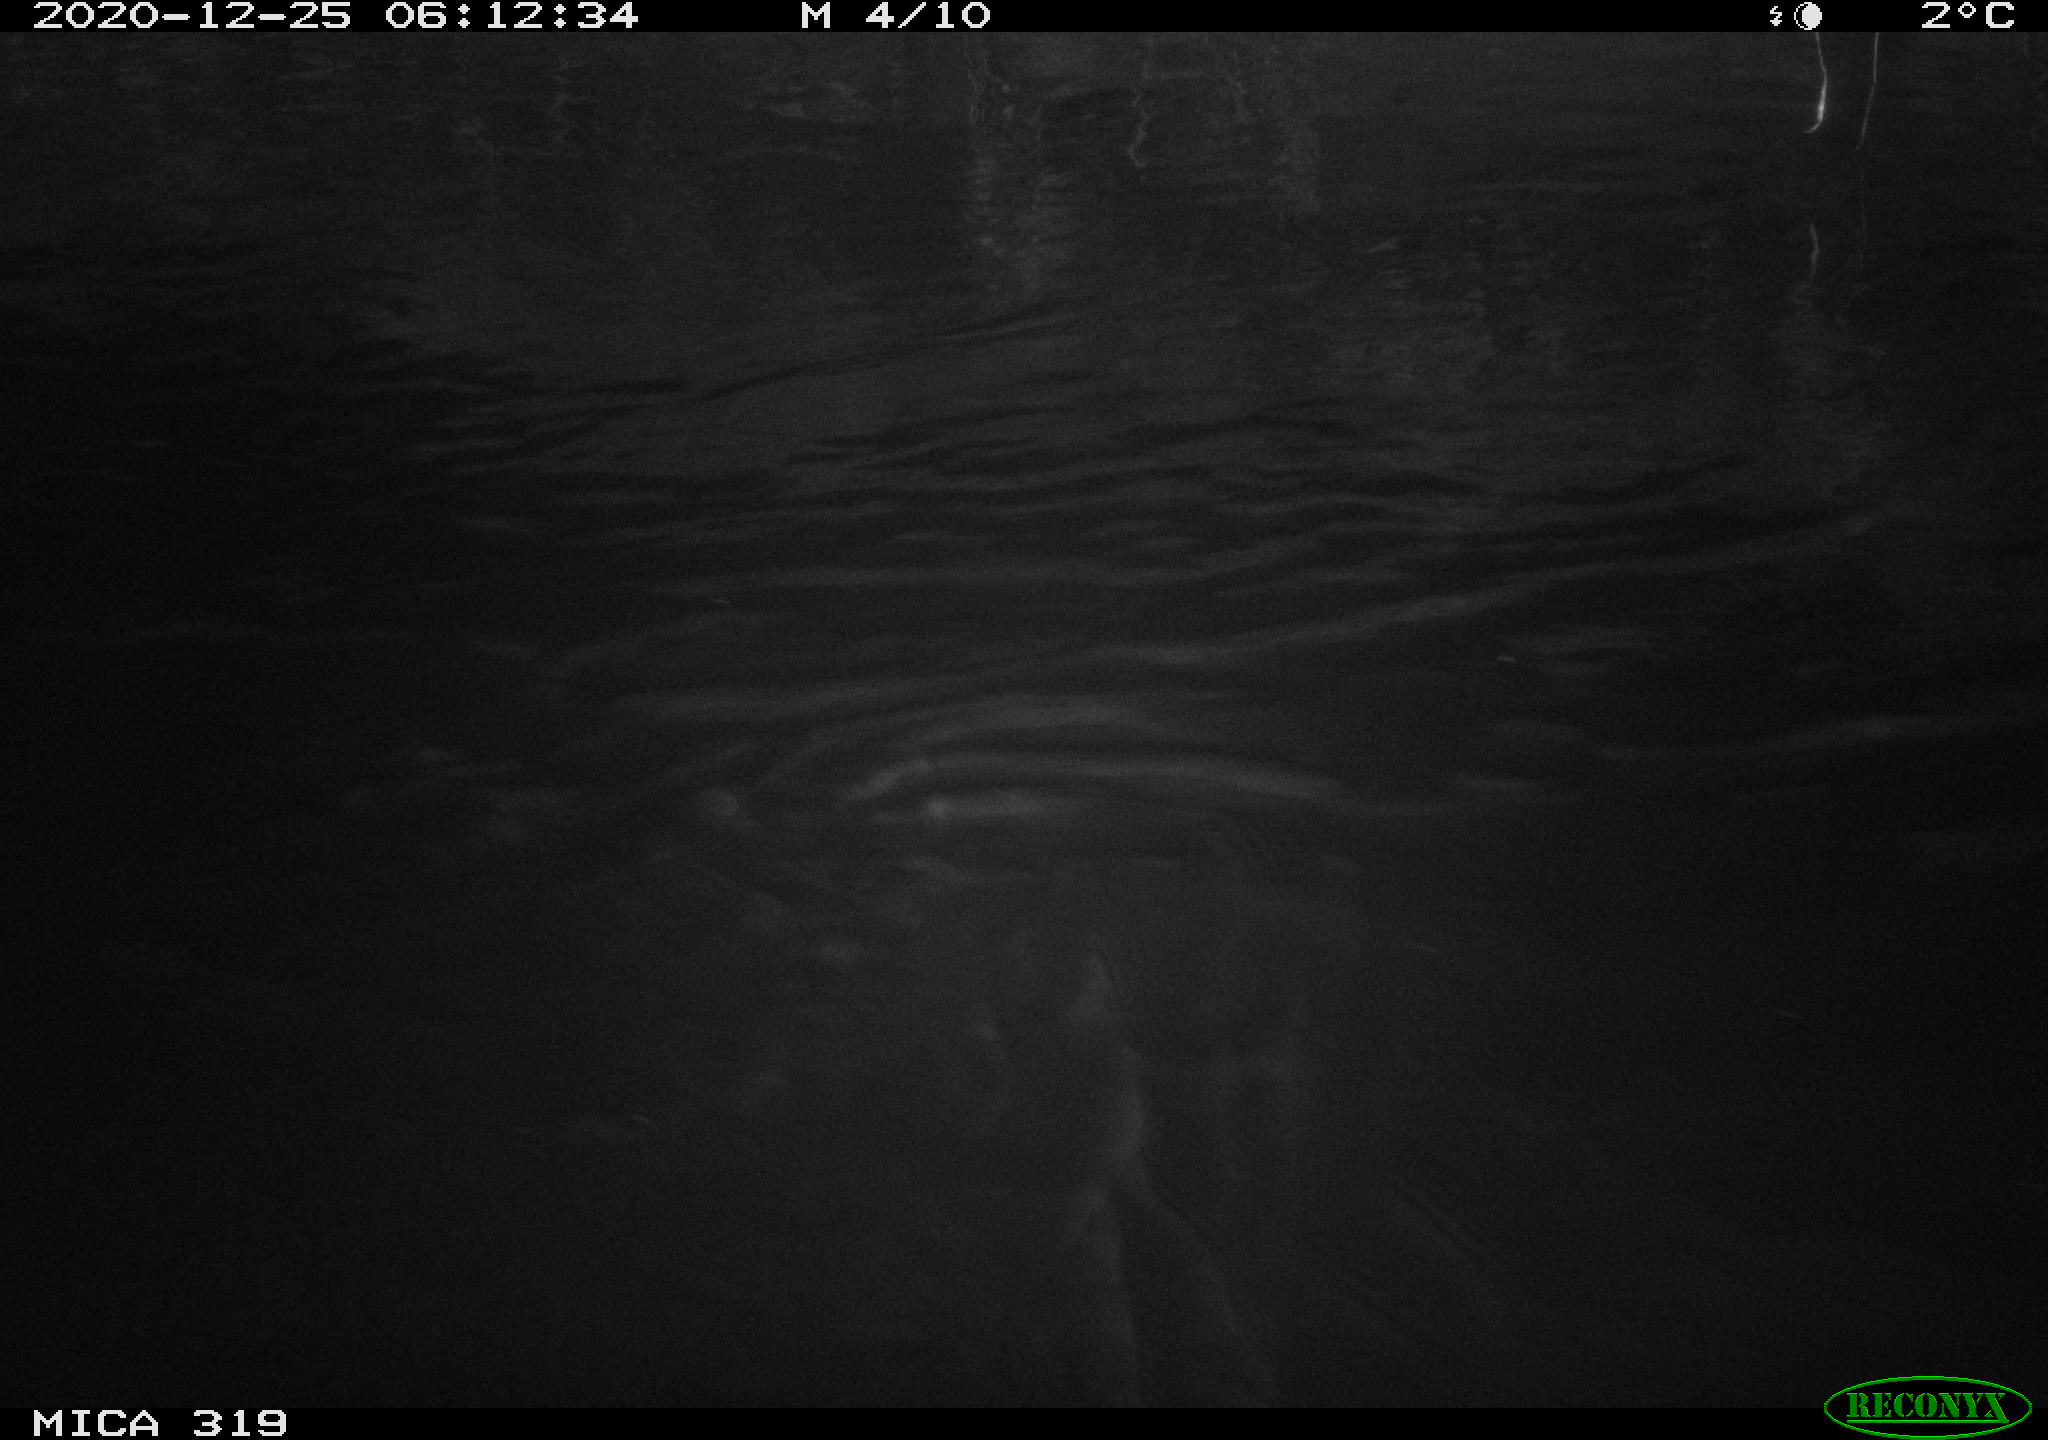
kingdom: Animalia
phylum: Chordata
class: Aves
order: Anseriformes
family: Anatidae
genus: Anas
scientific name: Anas platyrhynchos
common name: Mallard
